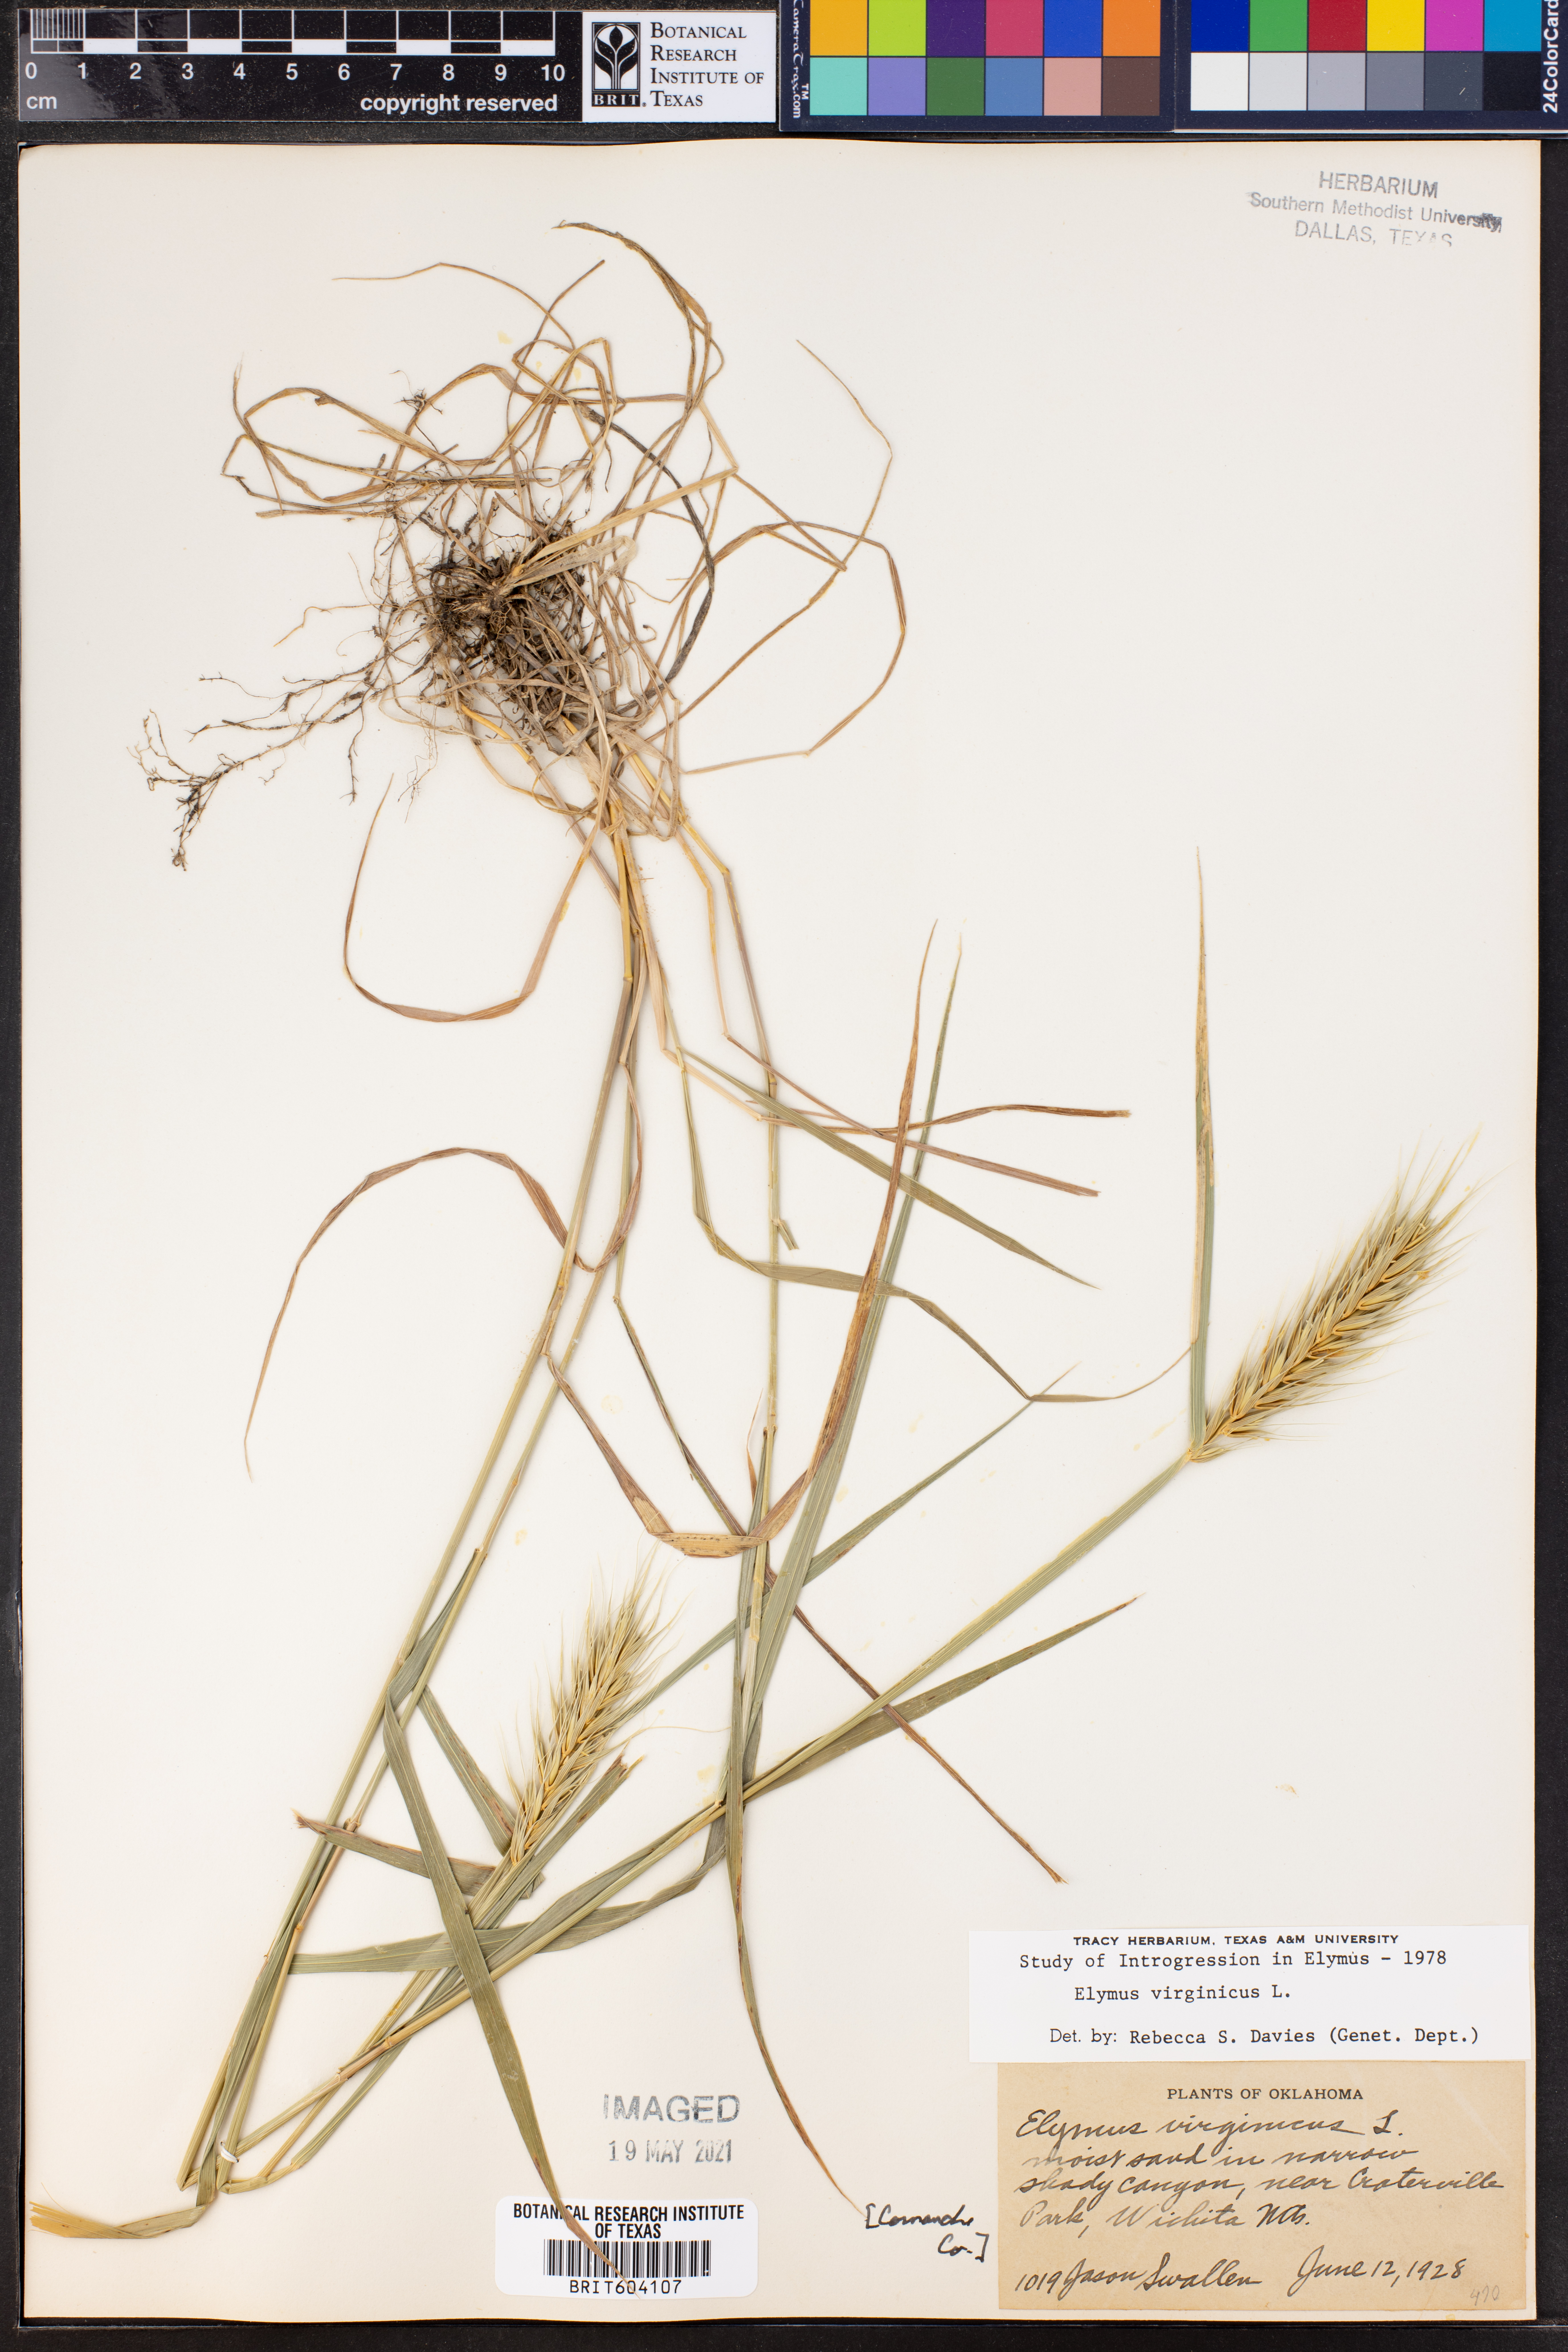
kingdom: Plantae
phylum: Tracheophyta
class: Liliopsida
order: Poales
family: Poaceae
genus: Elymus
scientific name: Elymus virginicus
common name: Common eastern wildrye
